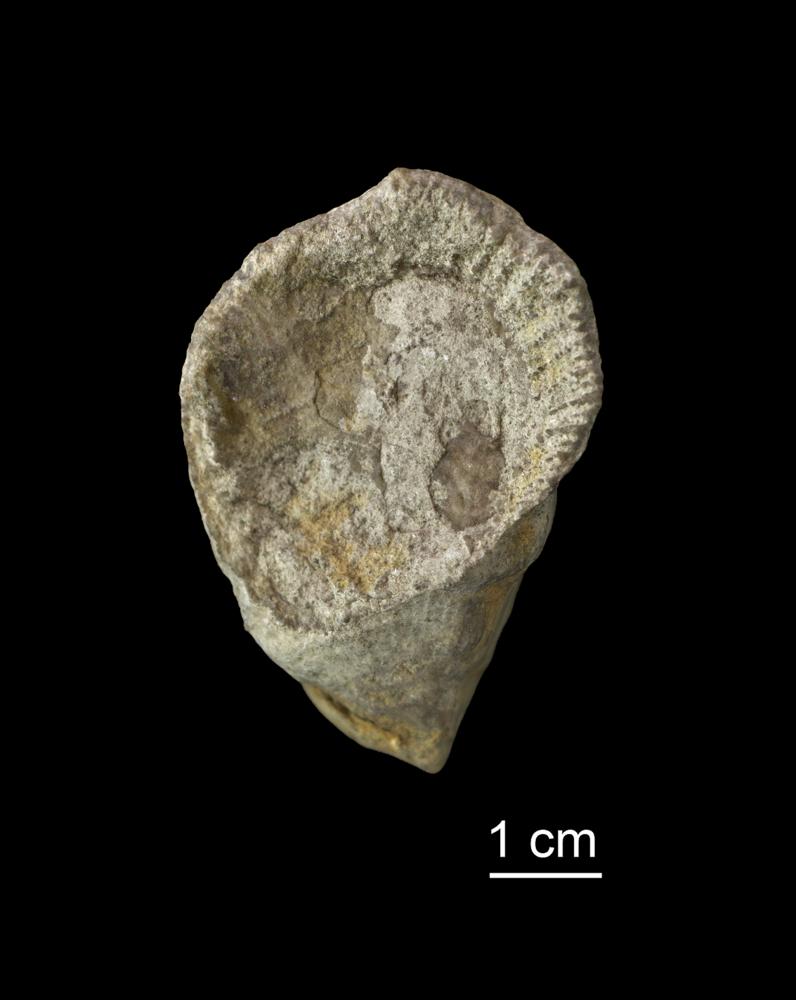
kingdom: Animalia
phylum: Cnidaria
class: Anthozoa
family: Streptelasmatidae
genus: Streptelasma
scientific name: Streptelasma
